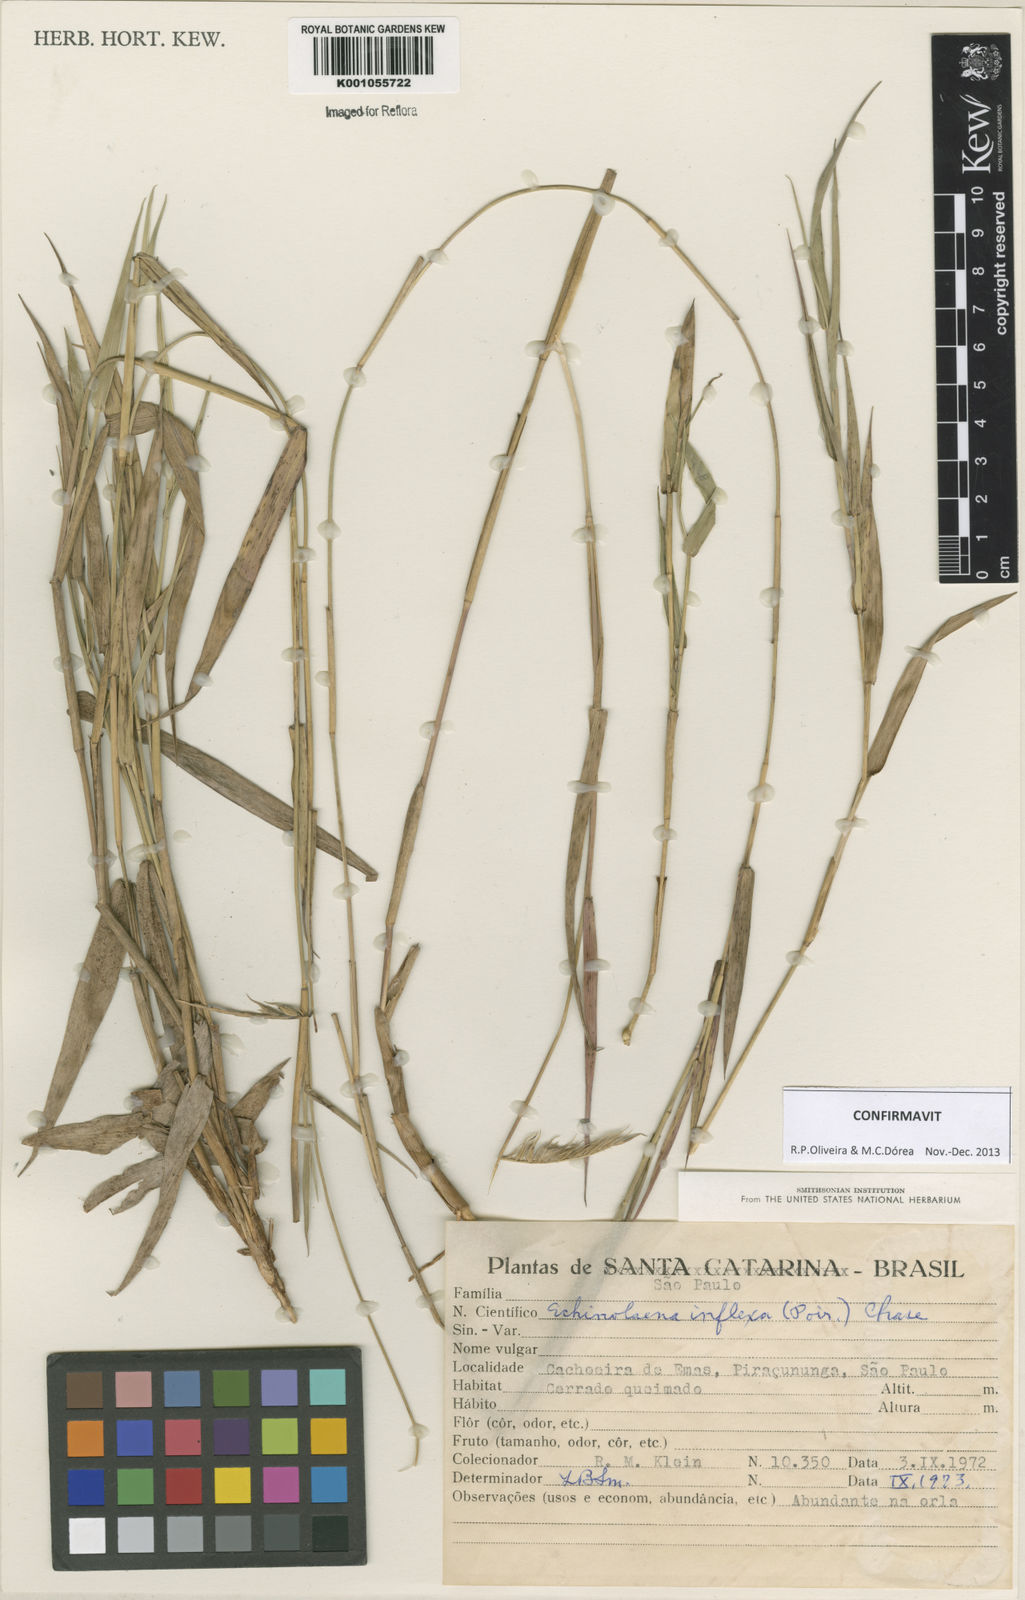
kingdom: Plantae
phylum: Tracheophyta
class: Liliopsida
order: Poales
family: Poaceae
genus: Echinolaena
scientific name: Echinolaena inflexa
